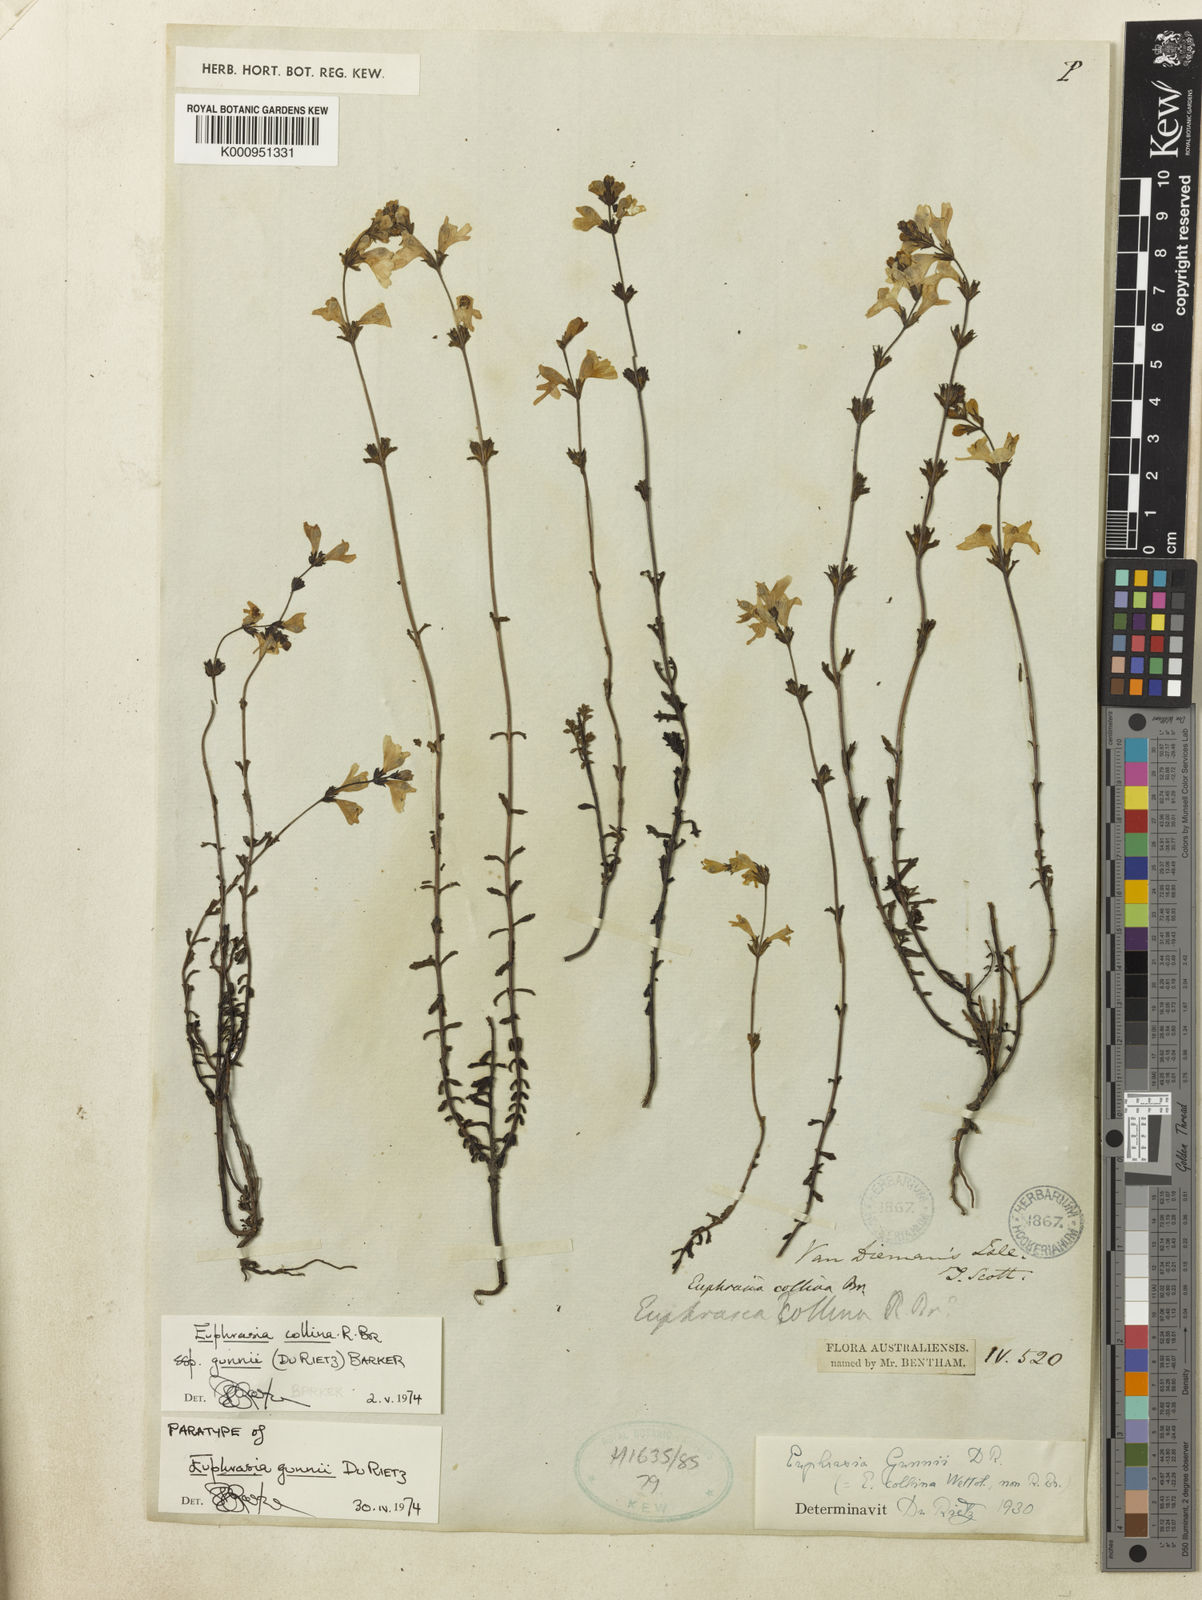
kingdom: Plantae
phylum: Tracheophyta
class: Magnoliopsida
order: Lamiales
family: Orobanchaceae
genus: Euphrasia
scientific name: Euphrasia collina
